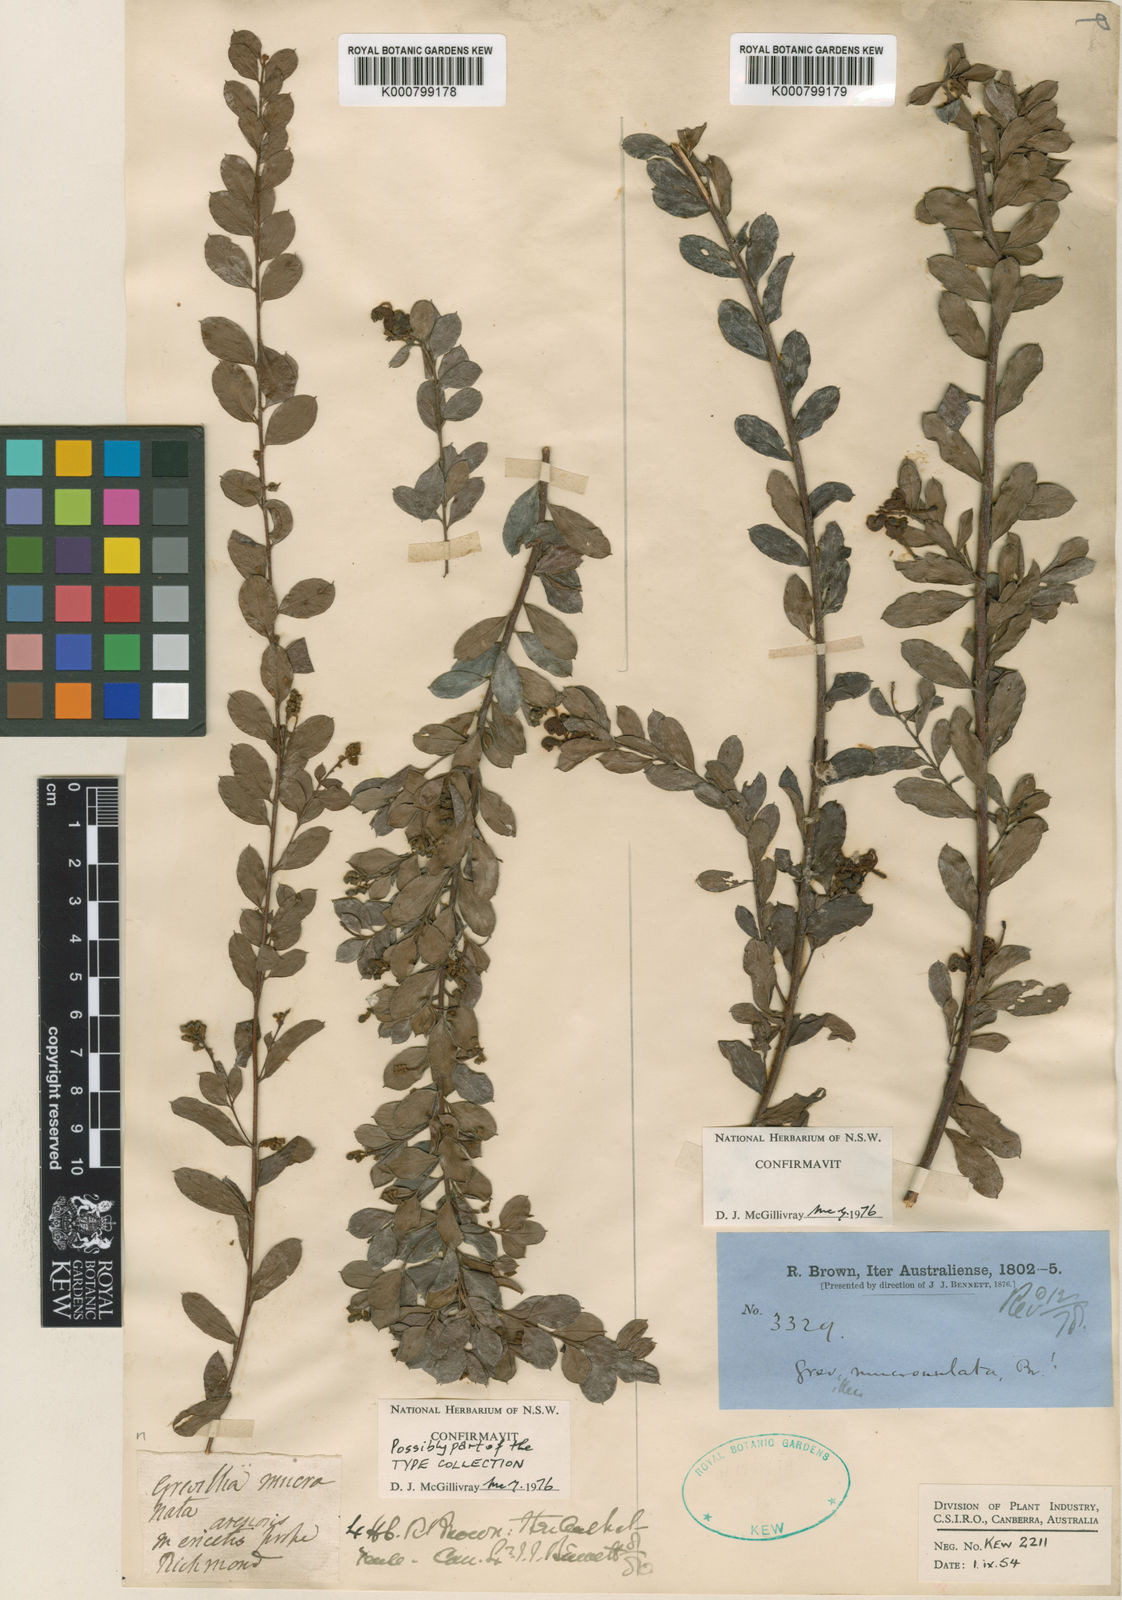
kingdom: Plantae
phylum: Tracheophyta
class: Magnoliopsida
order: Proteales
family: Proteaceae
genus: Grevillea
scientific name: Grevillea mucronulata
